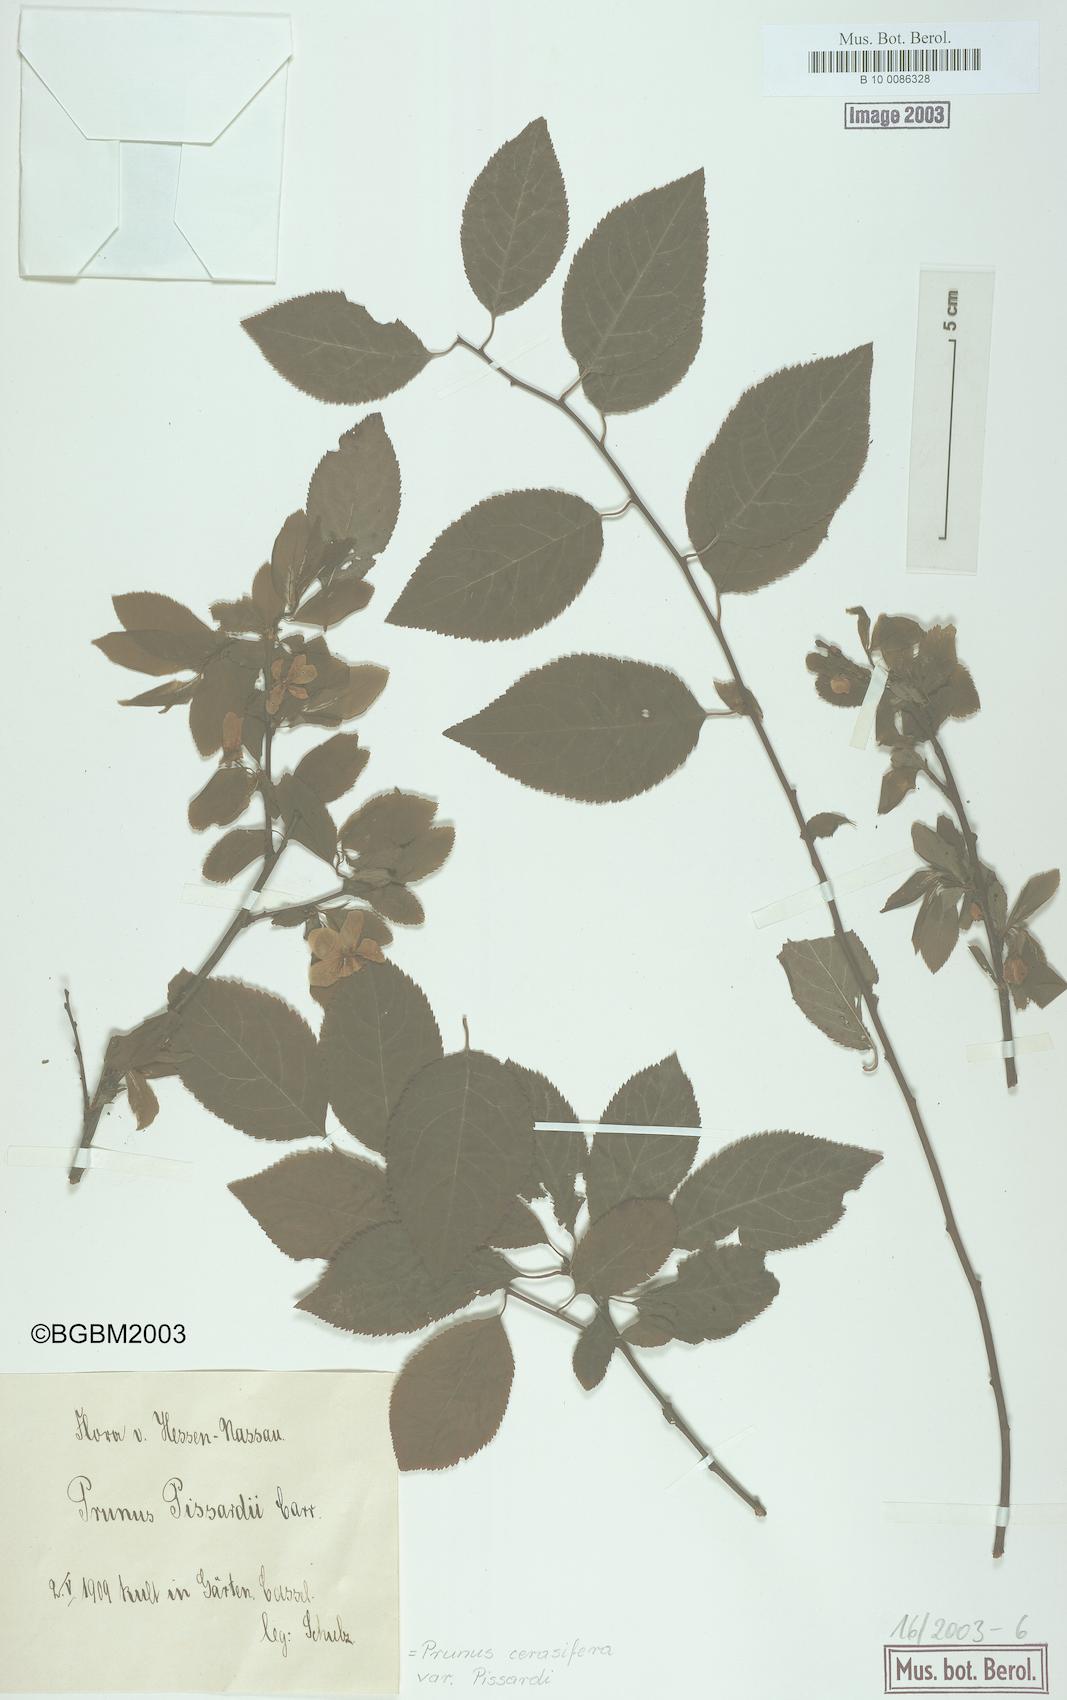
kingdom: Plantae
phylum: Tracheophyta
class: Magnoliopsida
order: Rosales
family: Rosaceae
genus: Prunus
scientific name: Prunus cerasifera
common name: Cherry plum
